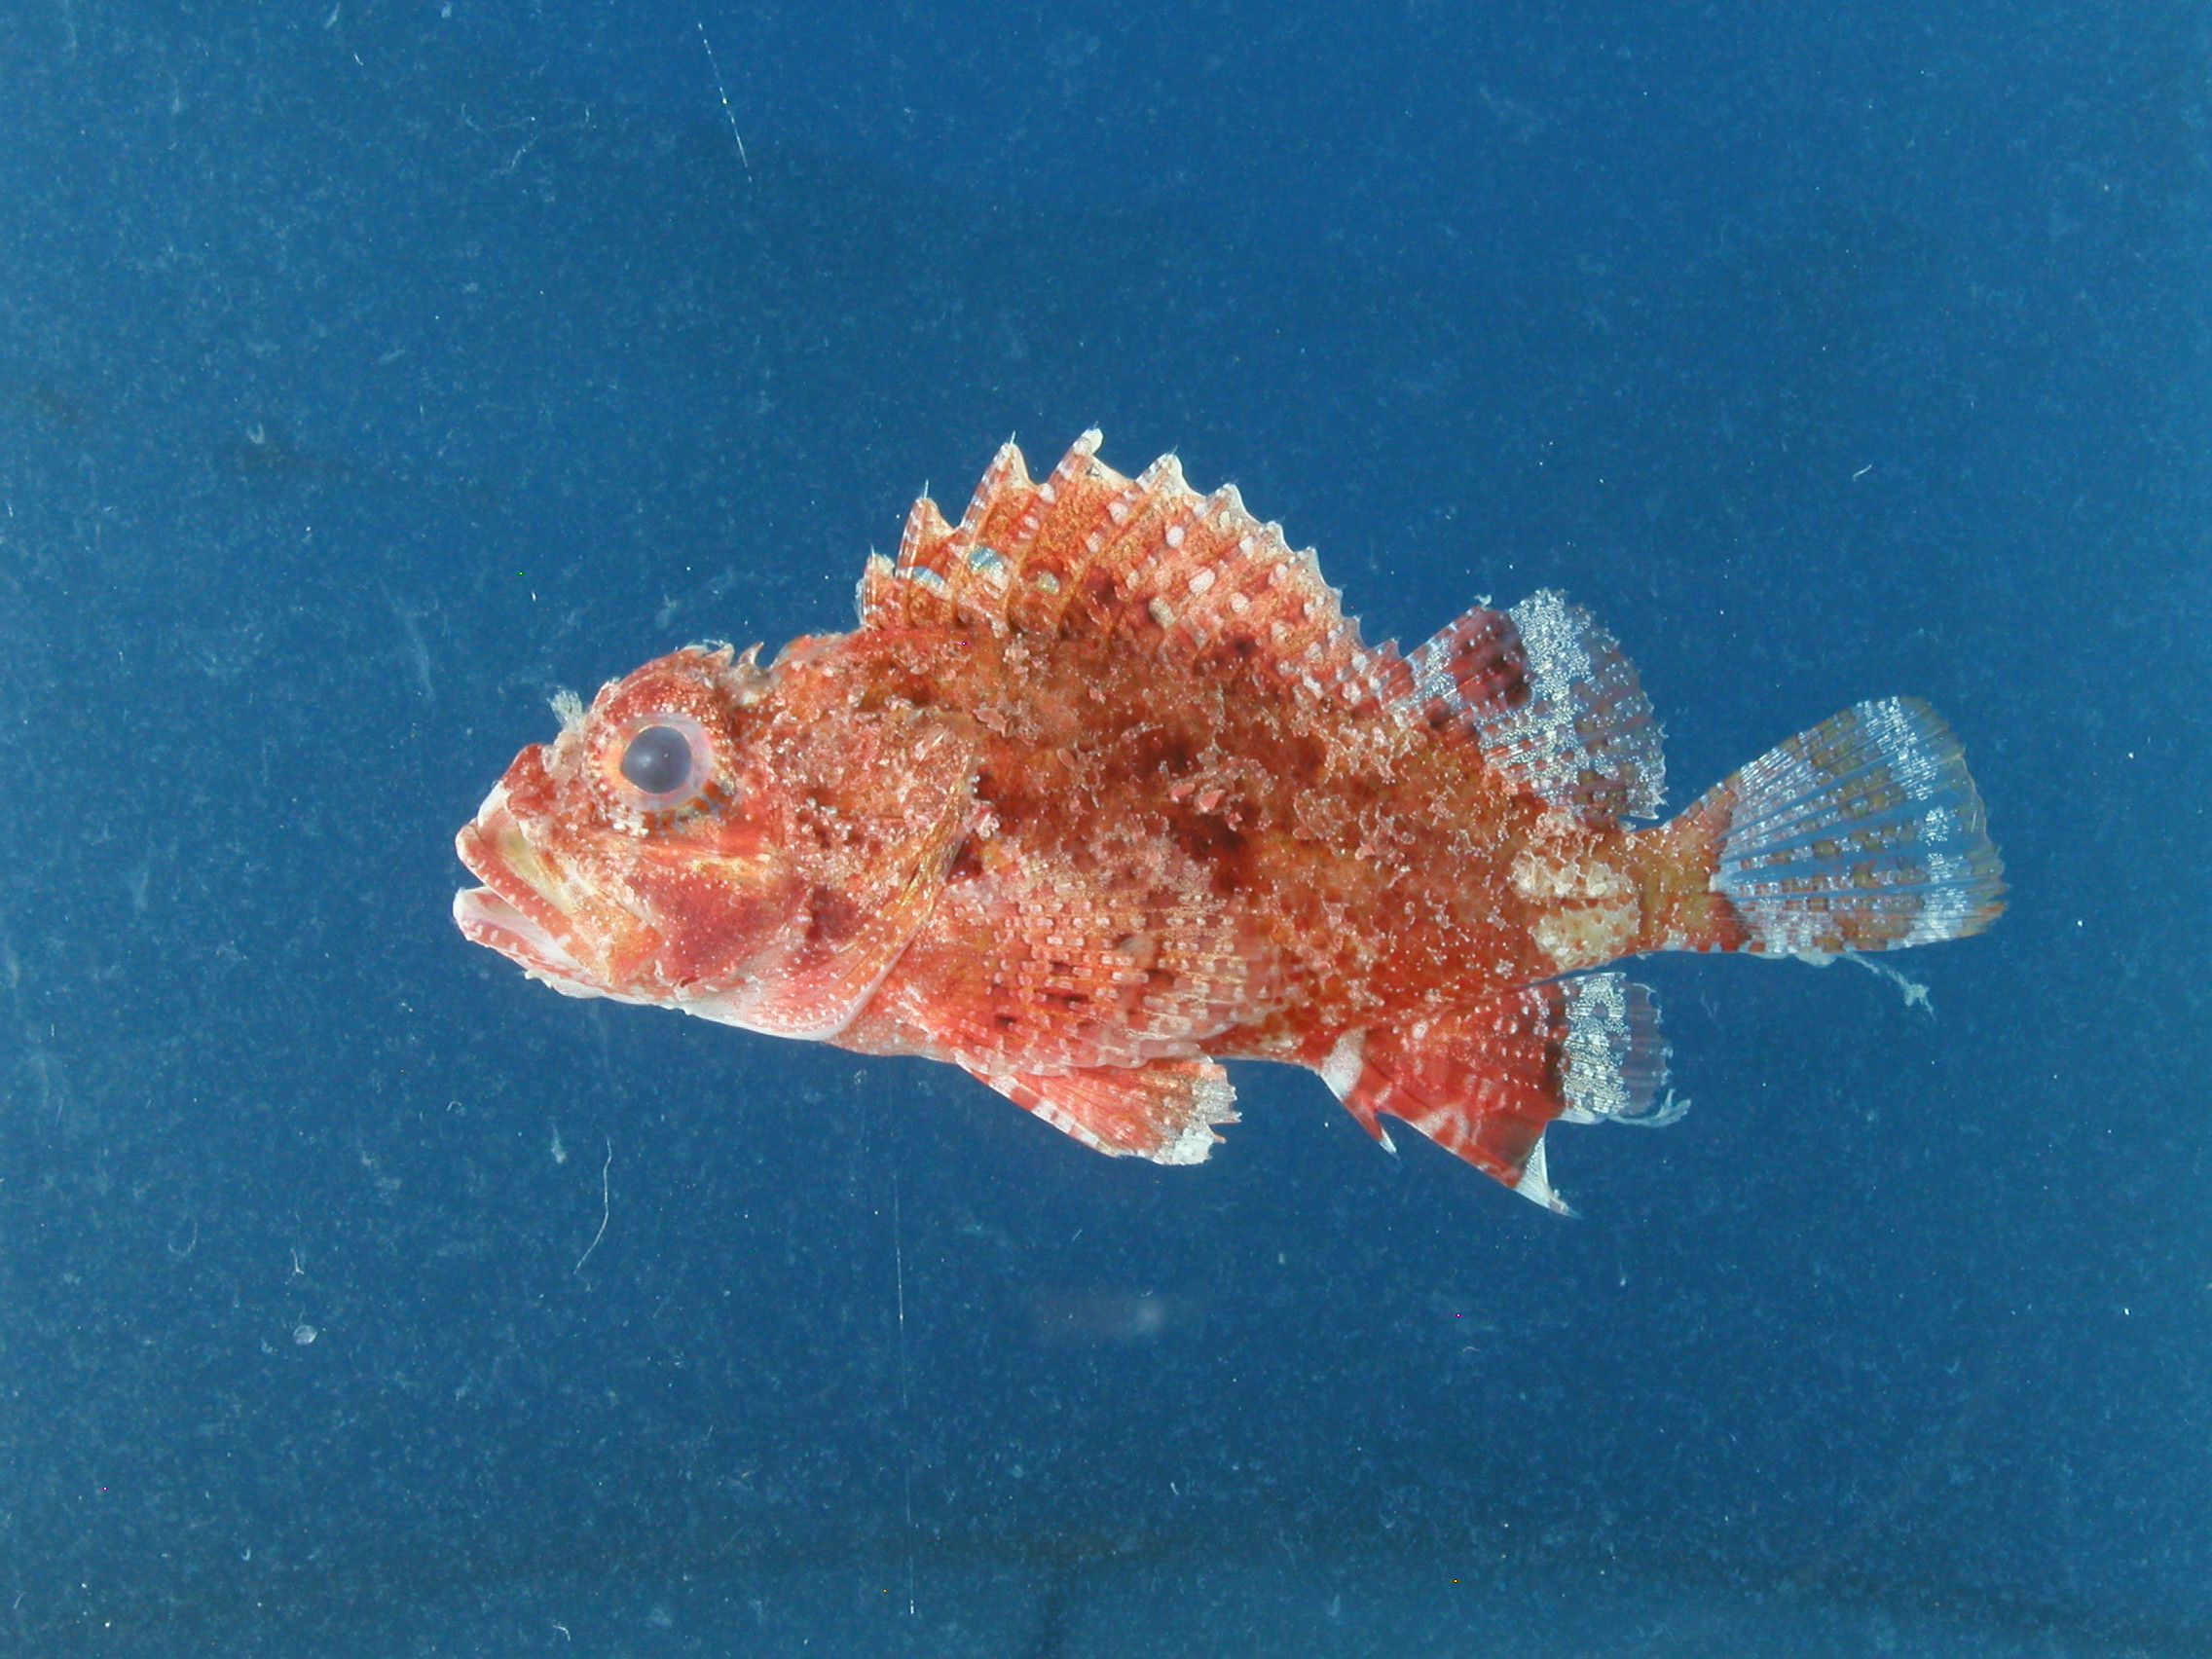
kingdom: Animalia
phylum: Chordata
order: Scorpaeniformes
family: Scorpaenidae
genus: Parascorpaena
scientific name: Parascorpaena aurita
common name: Byno scorpionfish
